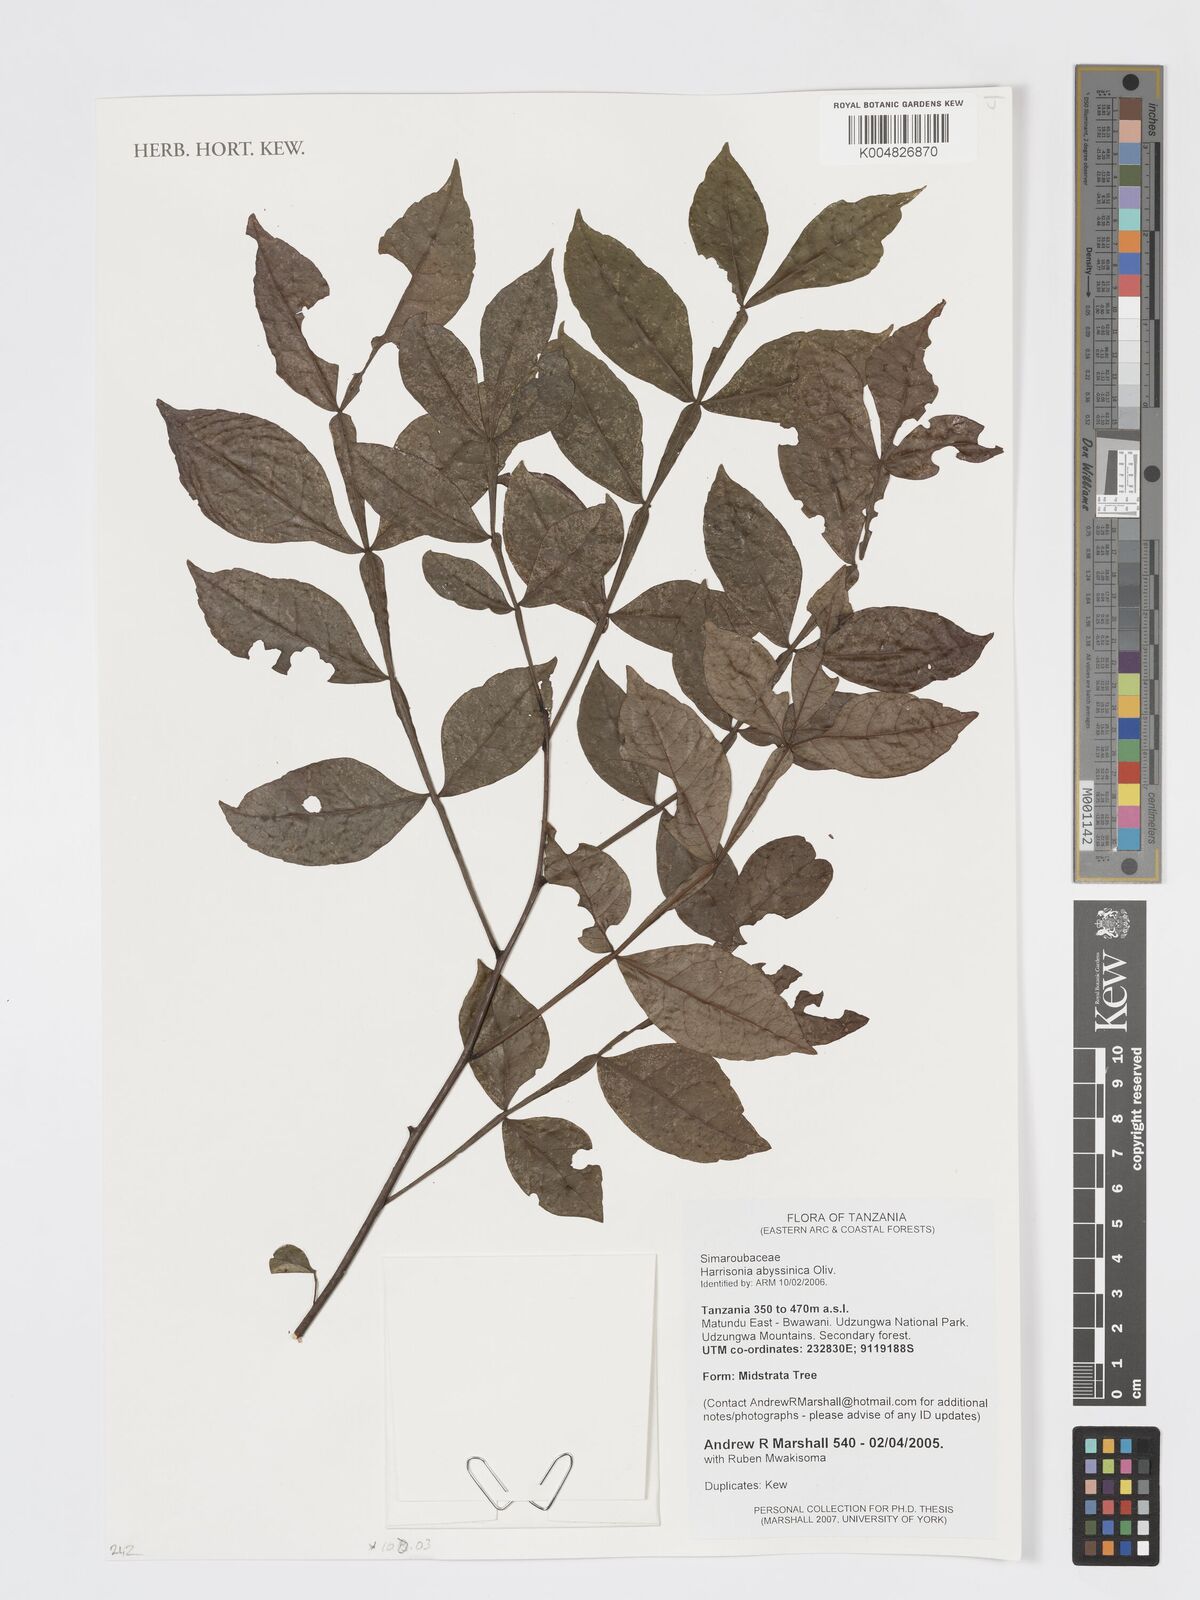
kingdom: Plantae
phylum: Tracheophyta
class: Magnoliopsida
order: Sapindales
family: Rutaceae
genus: Harrisonia
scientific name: Harrisonia abyssinica
